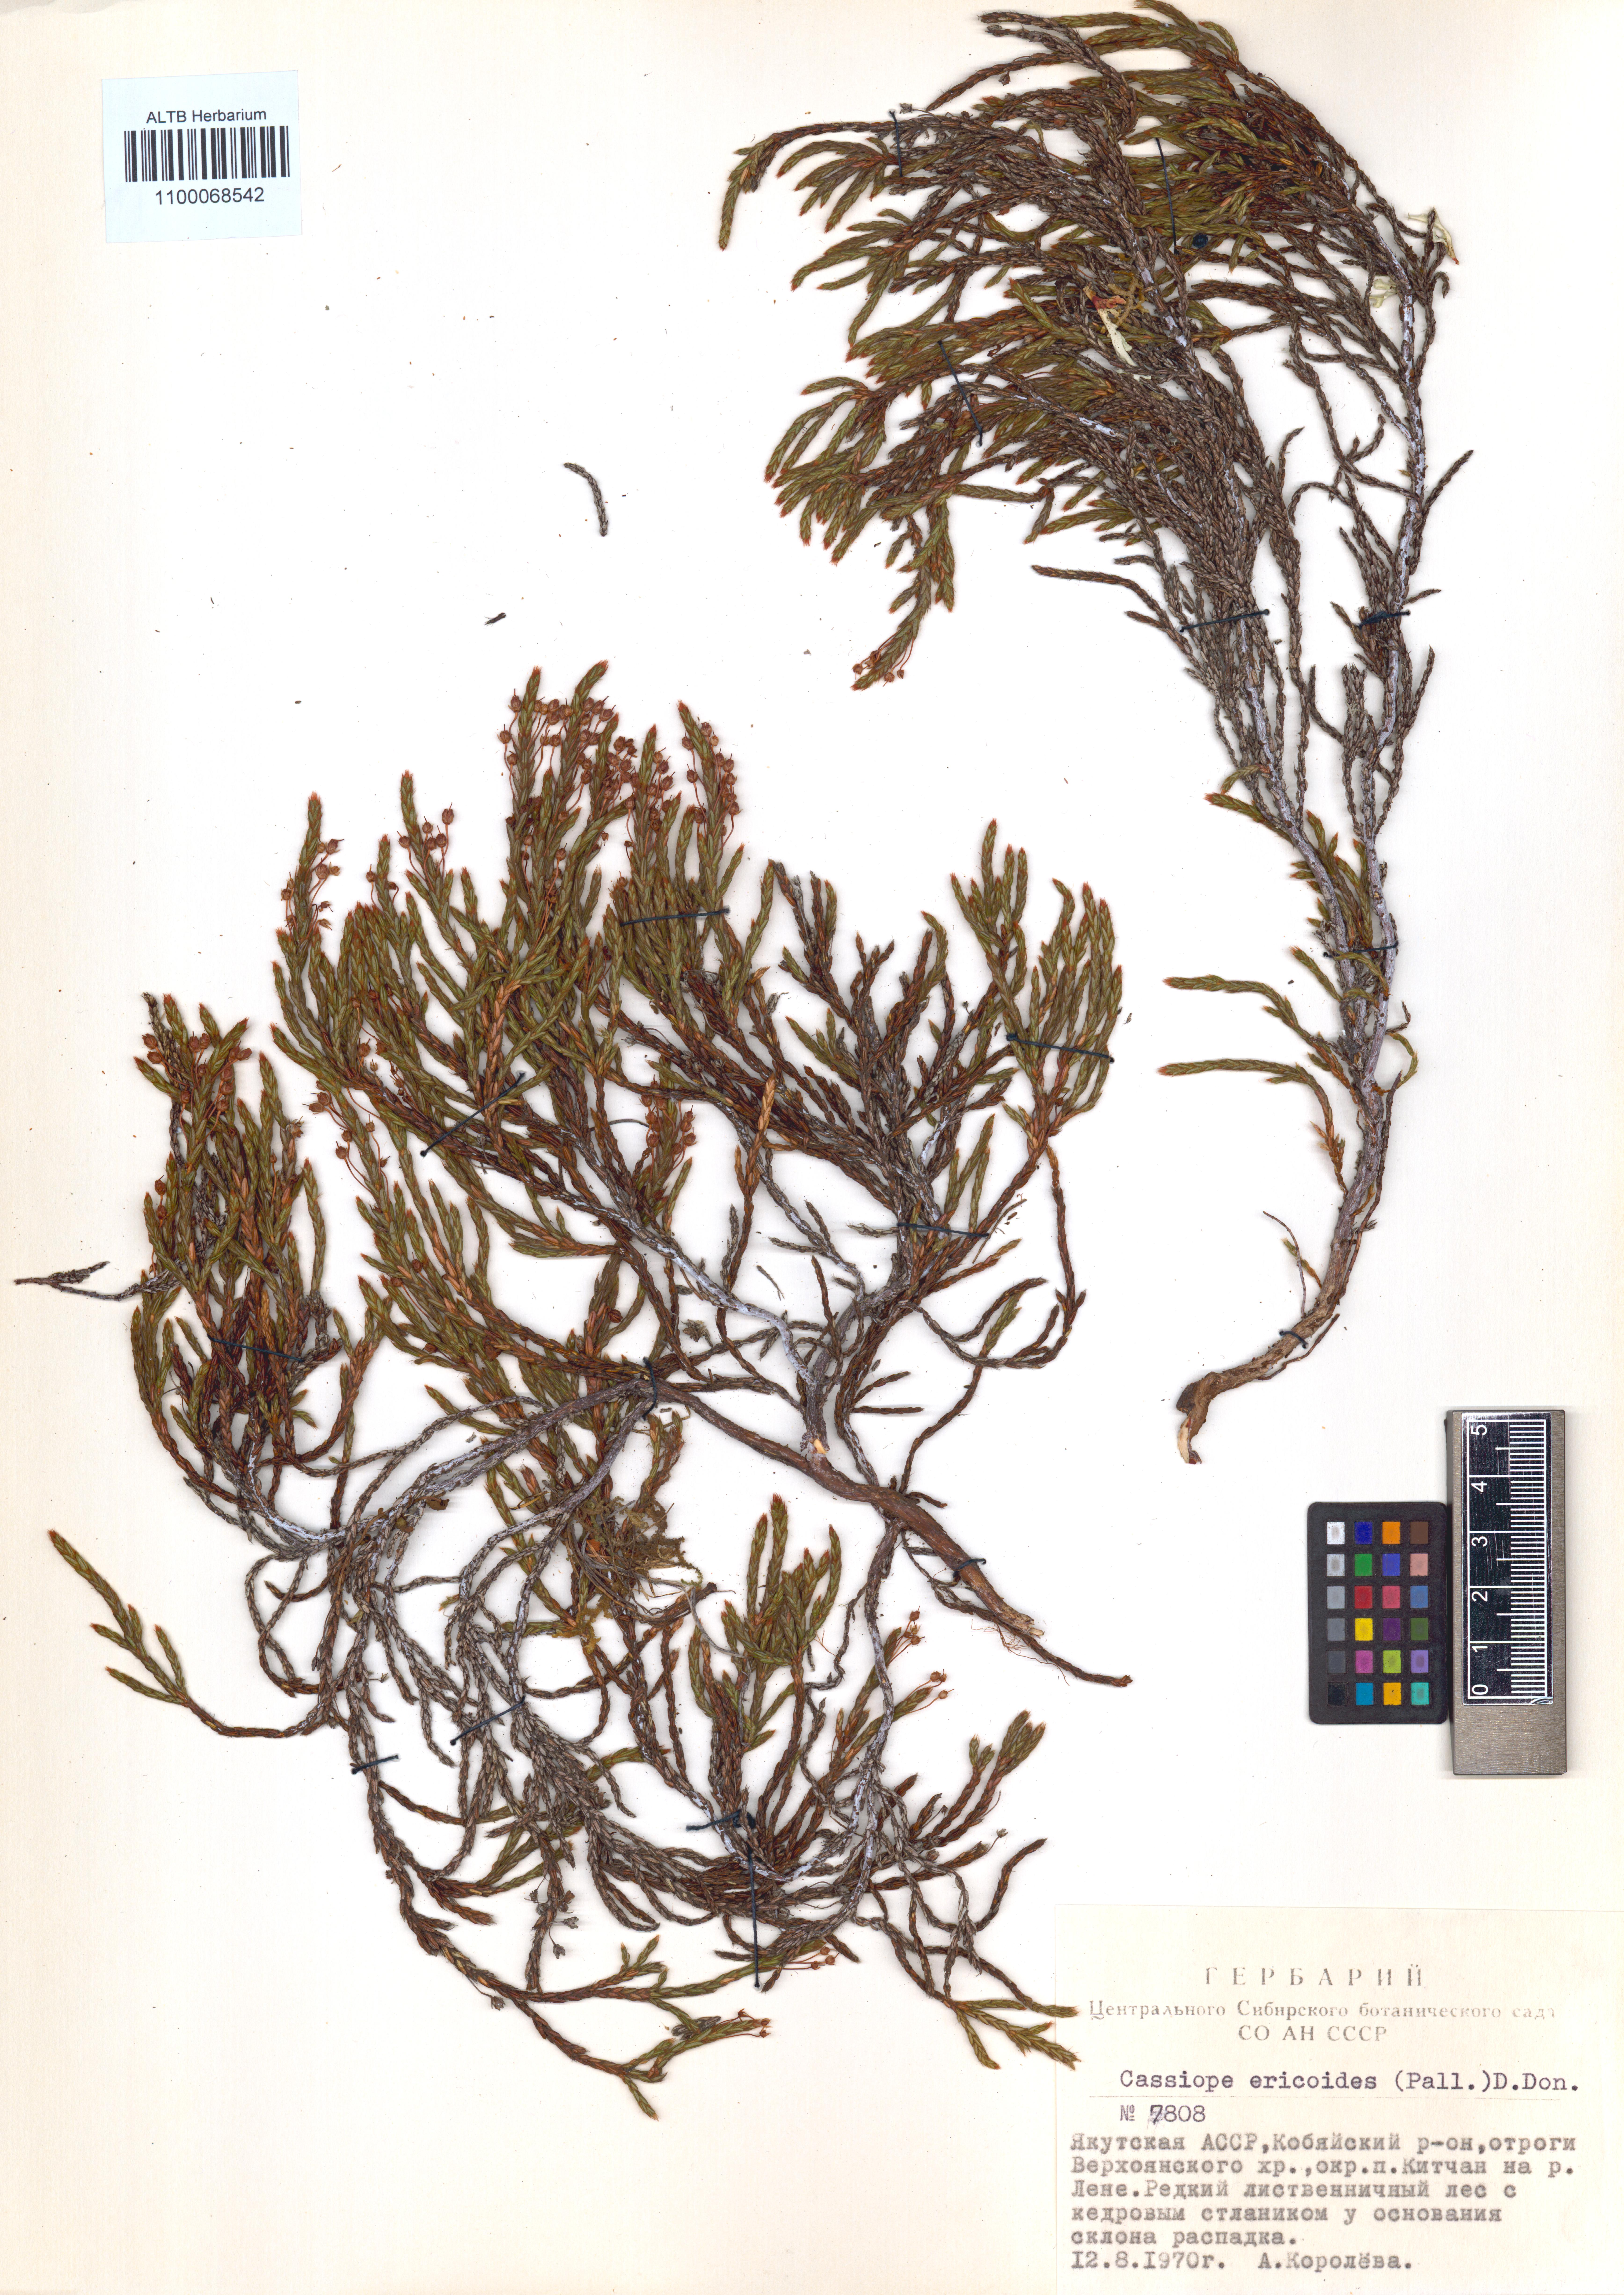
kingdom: Plantae
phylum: Tracheophyta
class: Magnoliopsida
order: Ericales
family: Ericaceae
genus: Cassiope
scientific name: Cassiope ericoides
